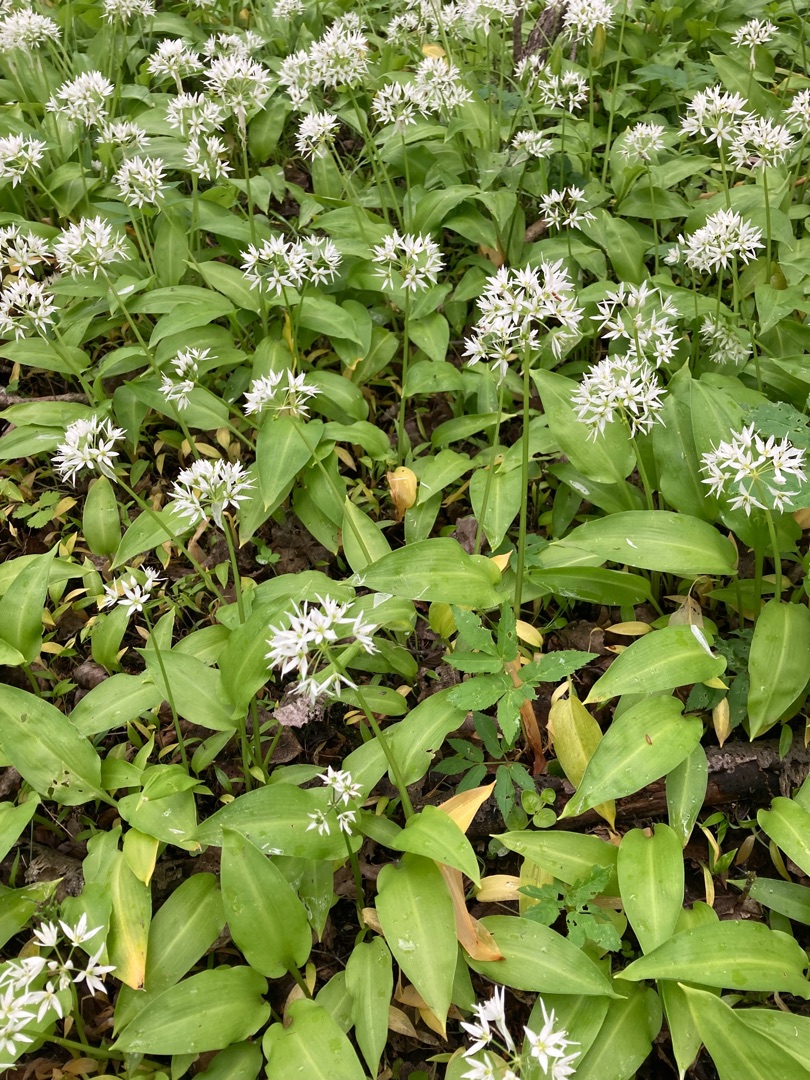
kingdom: Plantae
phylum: Tracheophyta
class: Liliopsida
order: Asparagales
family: Amaryllidaceae
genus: Allium
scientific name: Allium ursinum
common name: Rams-løg
